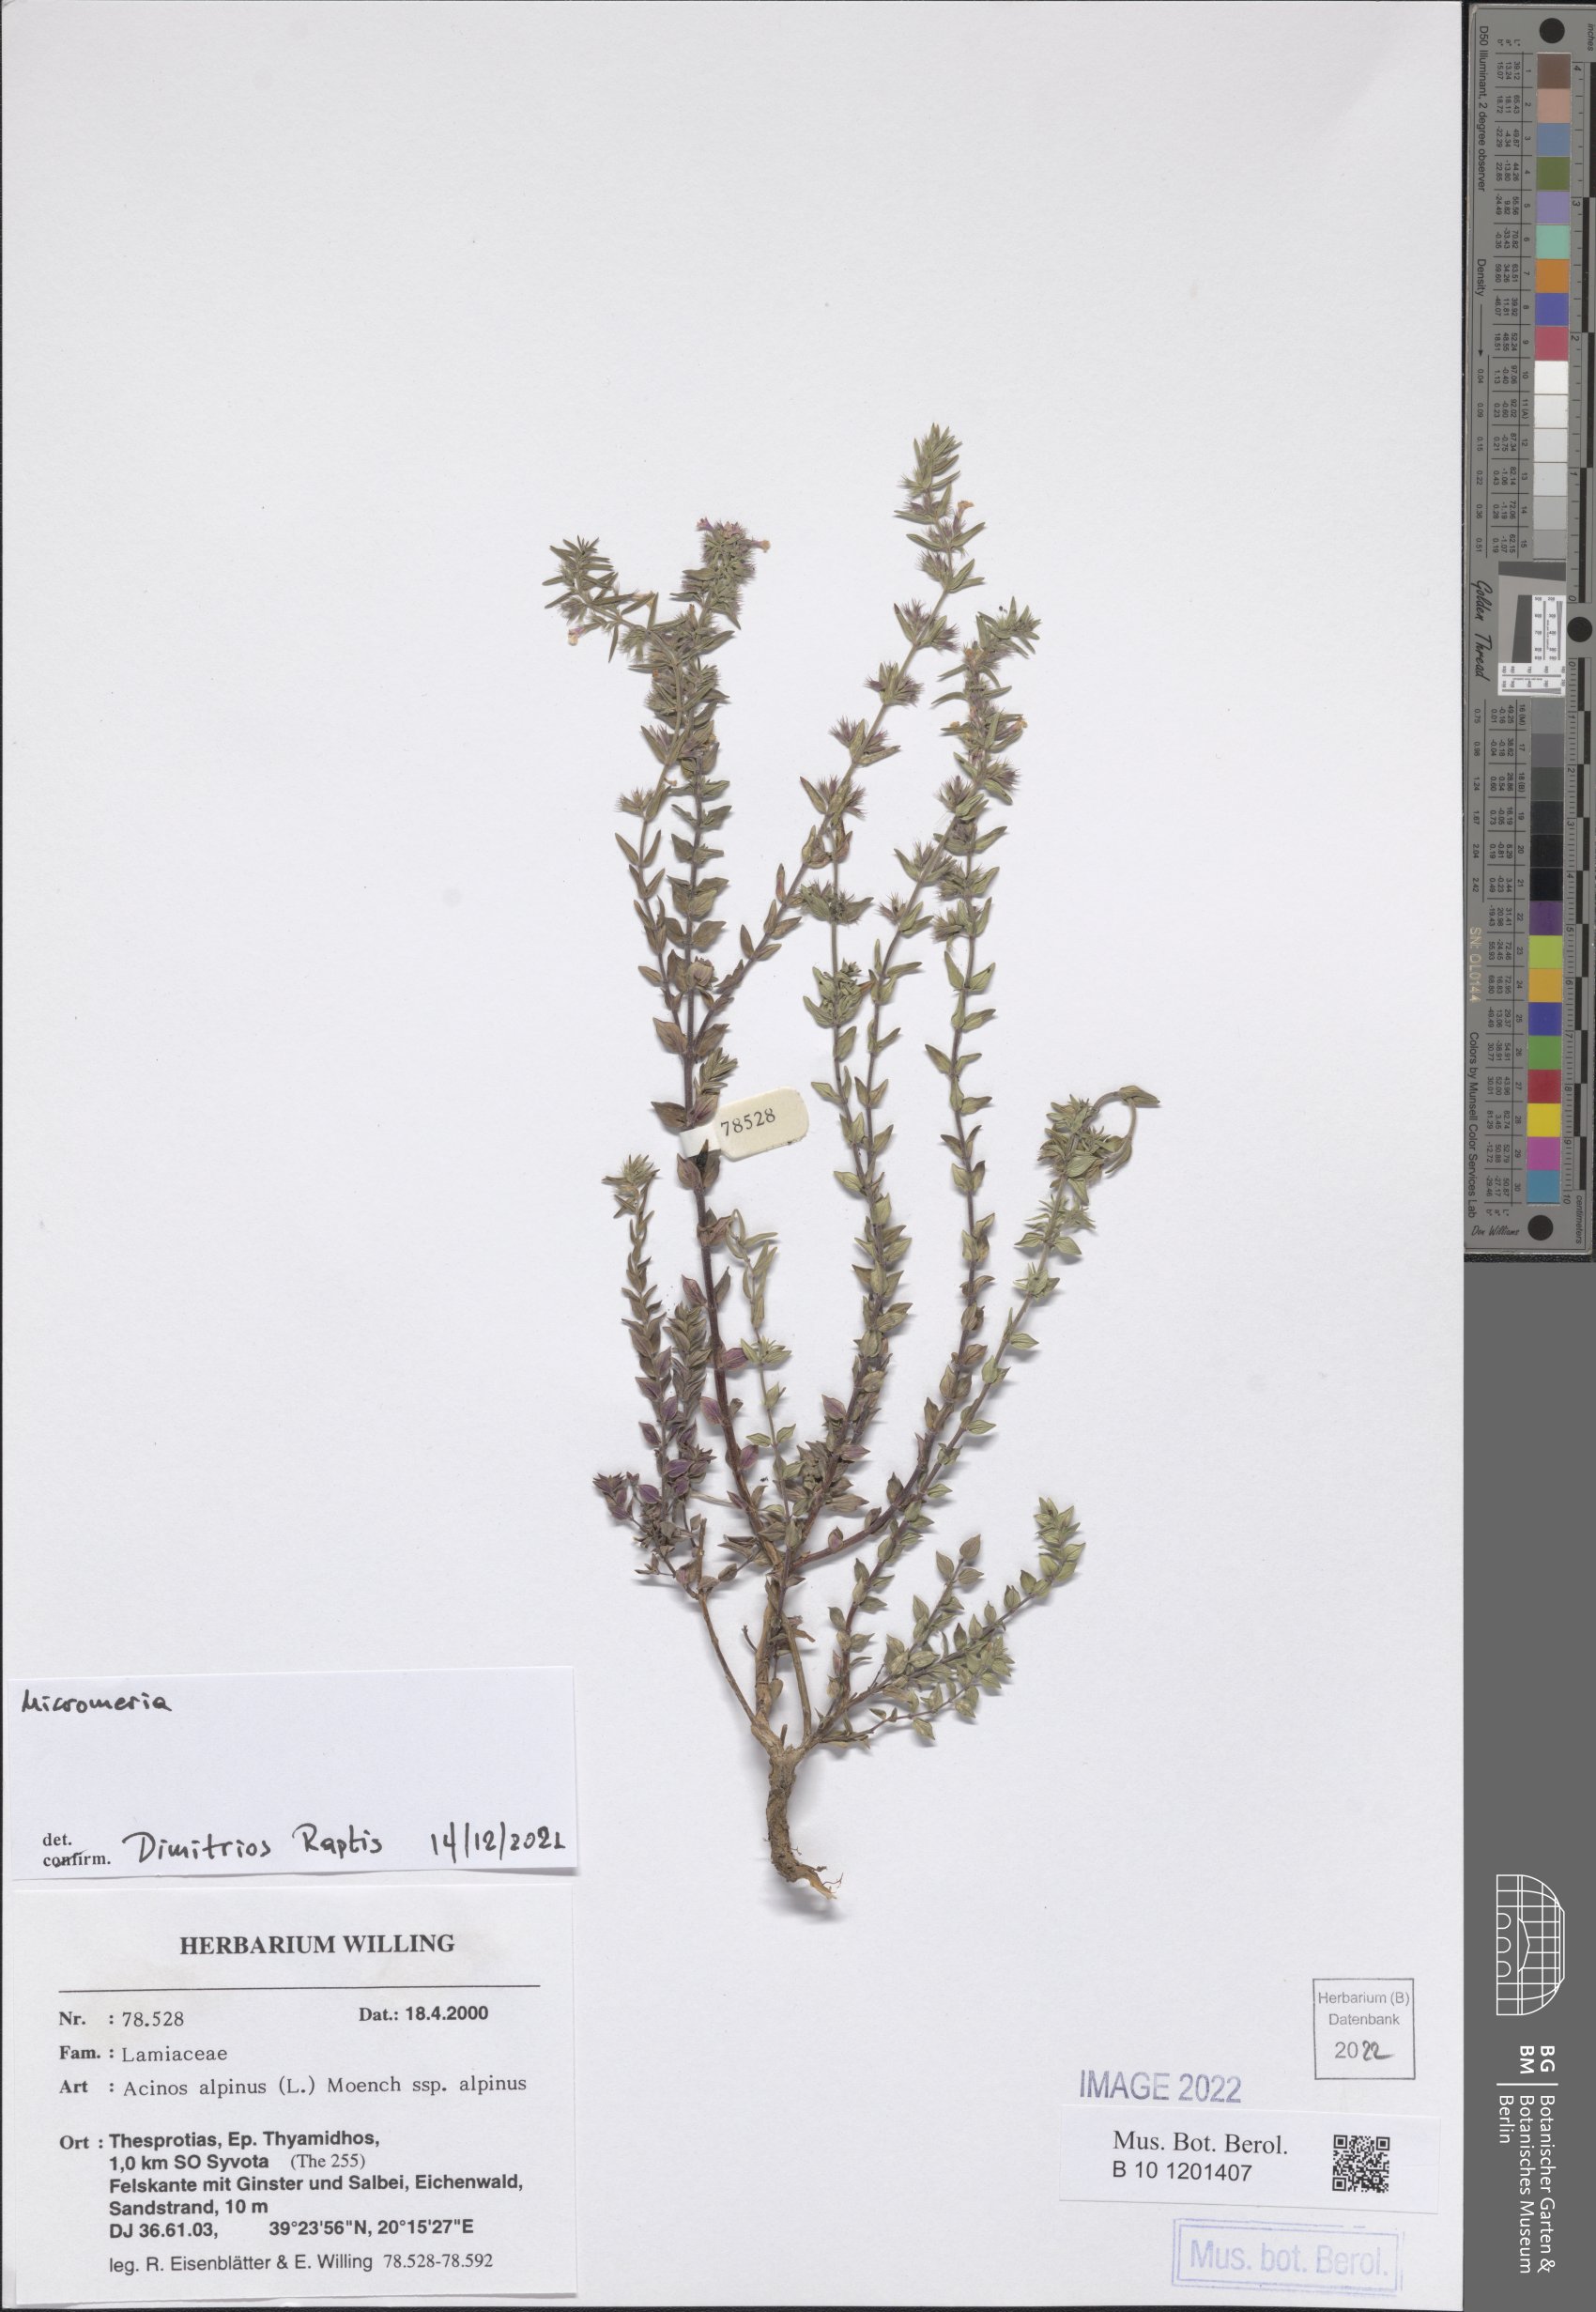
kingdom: Plantae
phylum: Tracheophyta
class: Magnoliopsida
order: Lamiales
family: Lamiaceae
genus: Micromeria
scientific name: Micromeria
